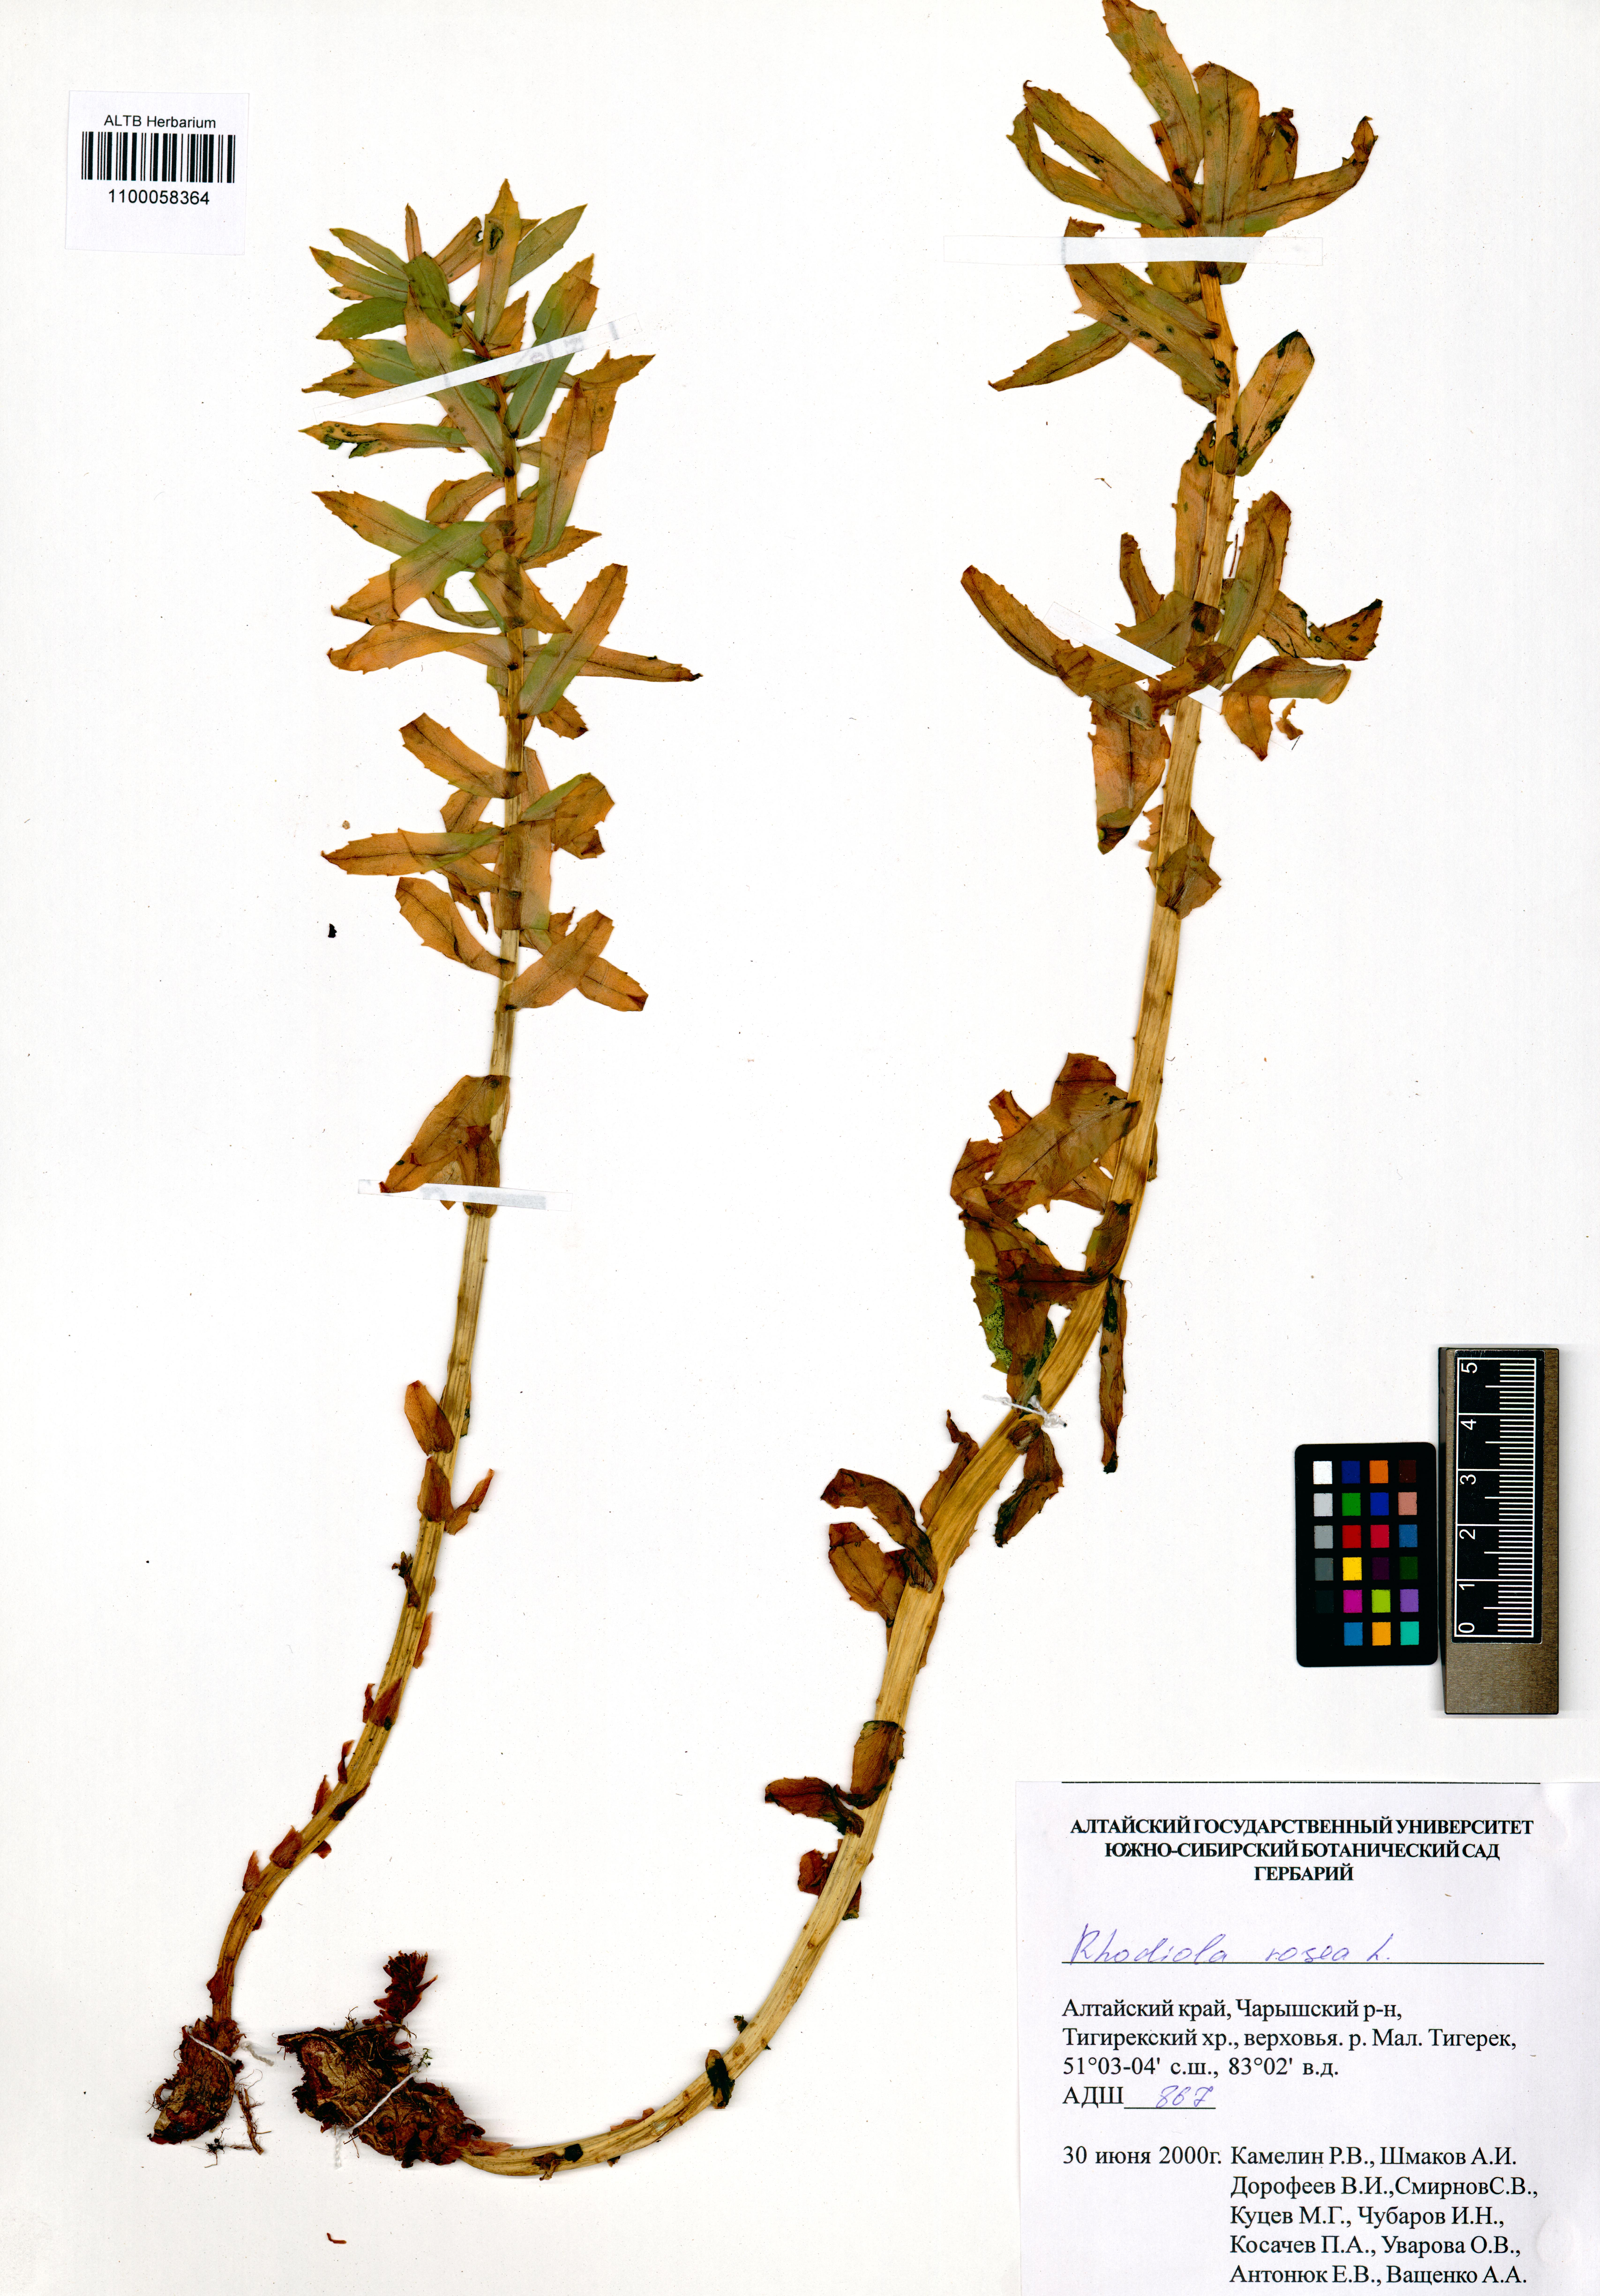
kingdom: Plantae
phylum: Tracheophyta
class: Magnoliopsida
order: Saxifragales
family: Crassulaceae
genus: Rhodiola
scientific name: Rhodiola rosea
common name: Roseroot
